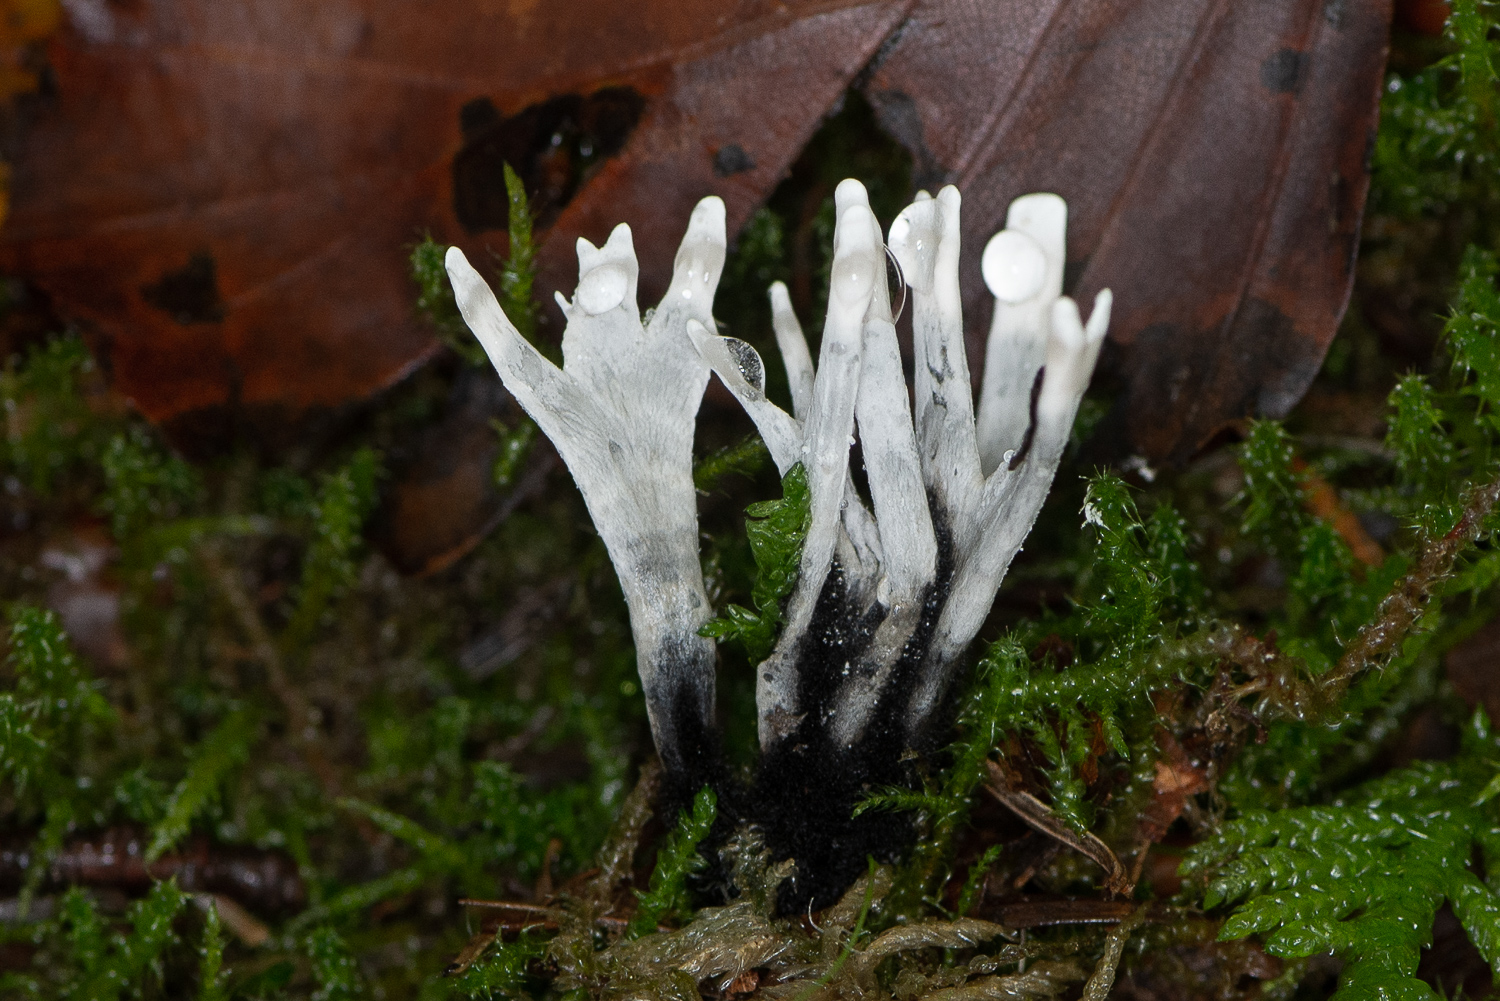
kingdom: Fungi
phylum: Ascomycota
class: Sordariomycetes
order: Xylariales
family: Xylariaceae
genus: Xylaria
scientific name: Xylaria hypoxylon
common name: grenet stødsvamp
